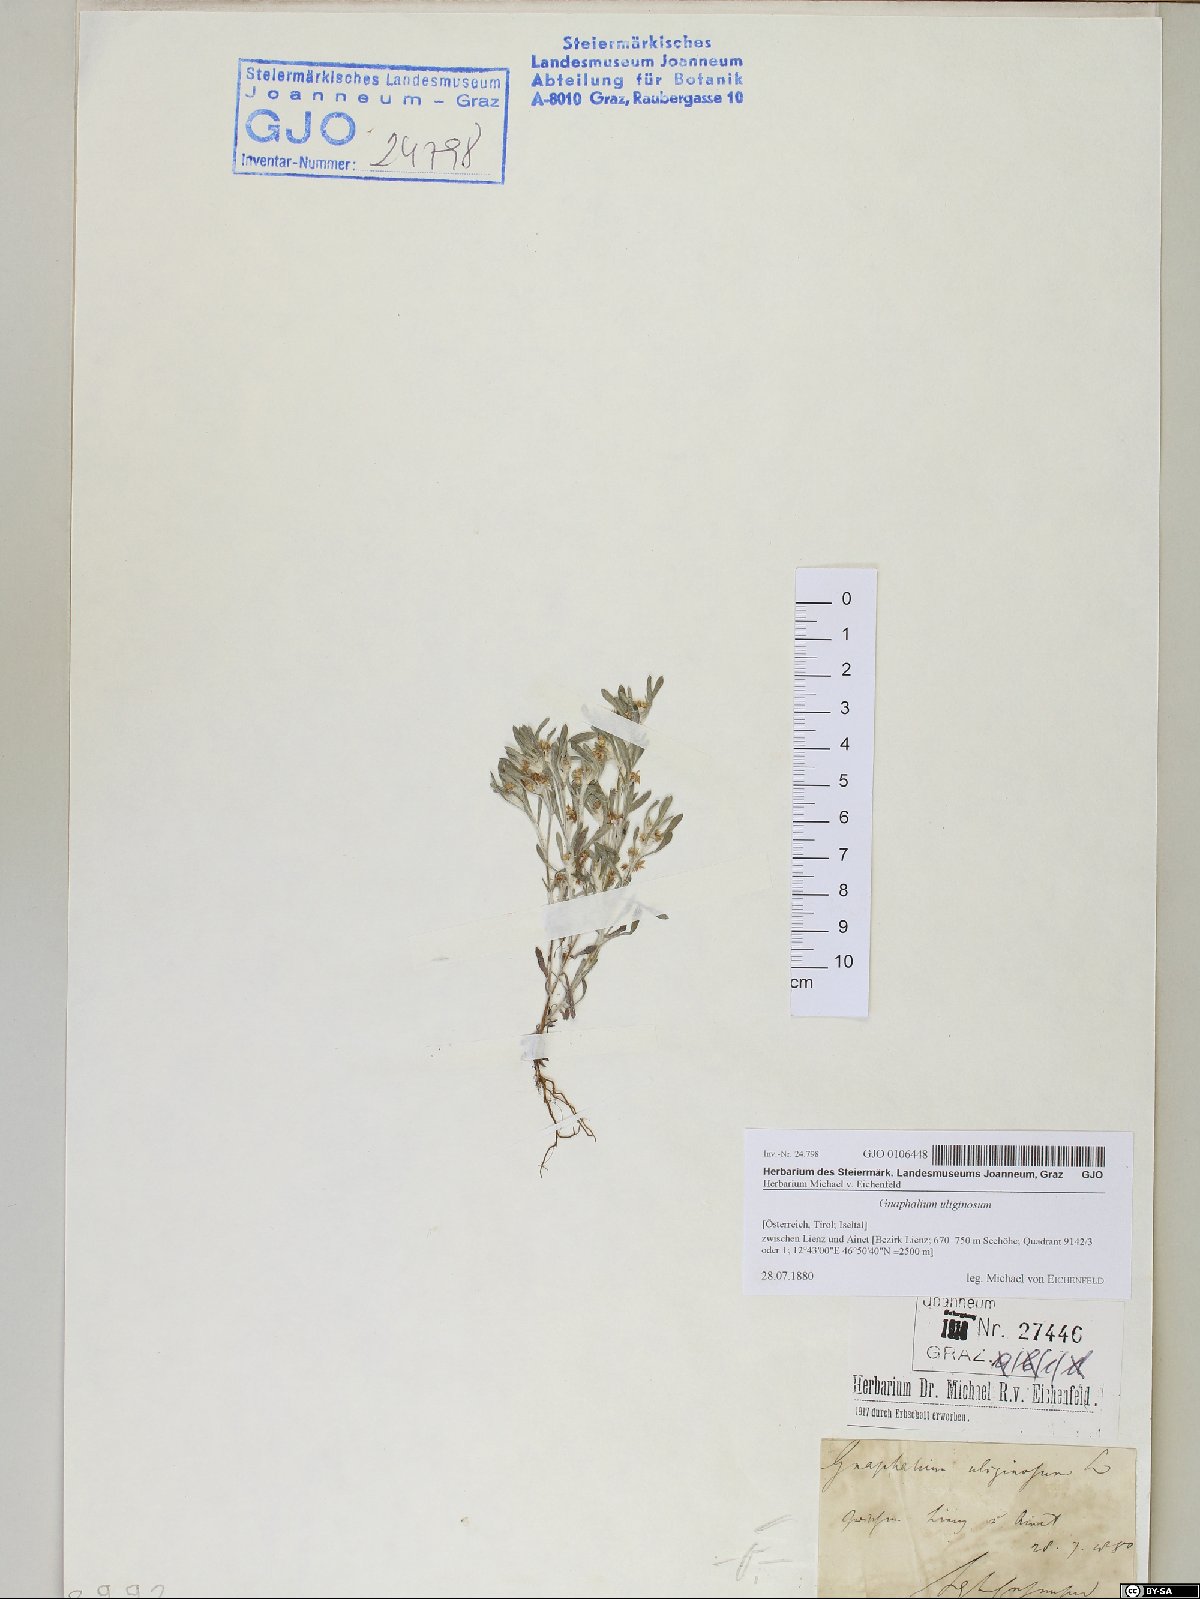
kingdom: Plantae
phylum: Tracheophyta
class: Magnoliopsida
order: Asterales
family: Asteraceae
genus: Gnaphalium
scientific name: Gnaphalium uliginosum
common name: Marsh cudweed
